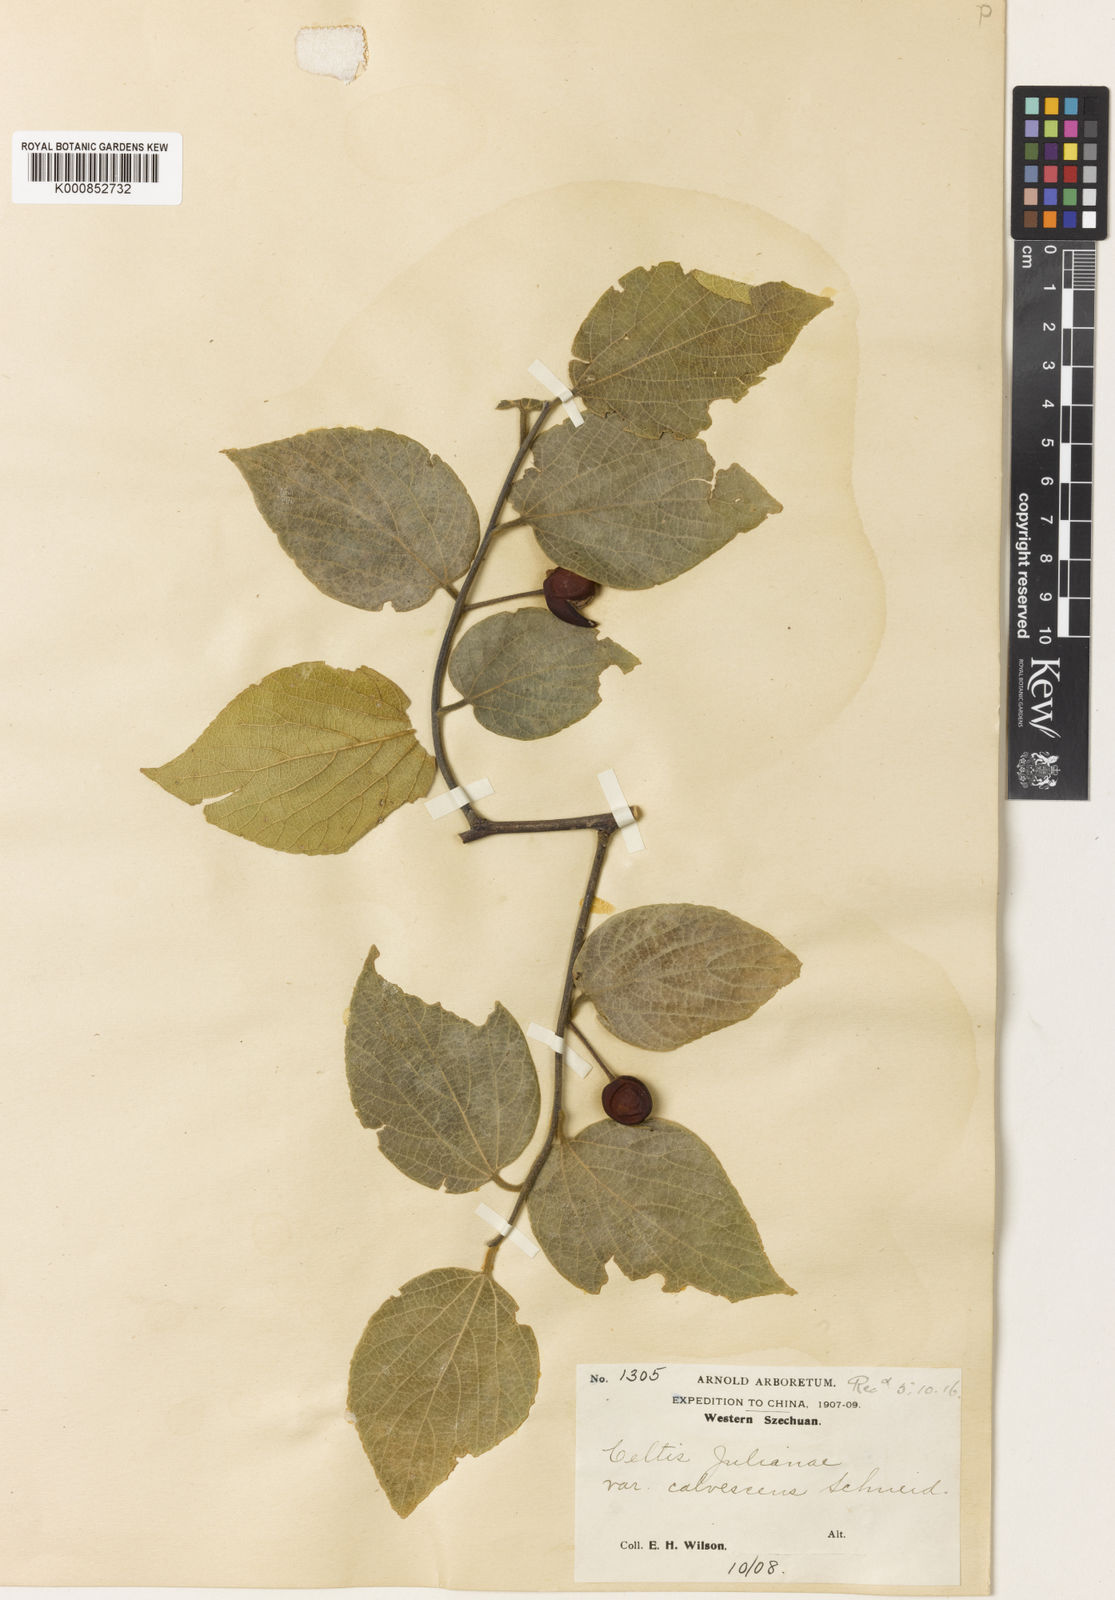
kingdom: Plantae
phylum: Tracheophyta
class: Magnoliopsida
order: Rosales
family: Cannabaceae
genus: Celtis
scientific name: Celtis julianae
